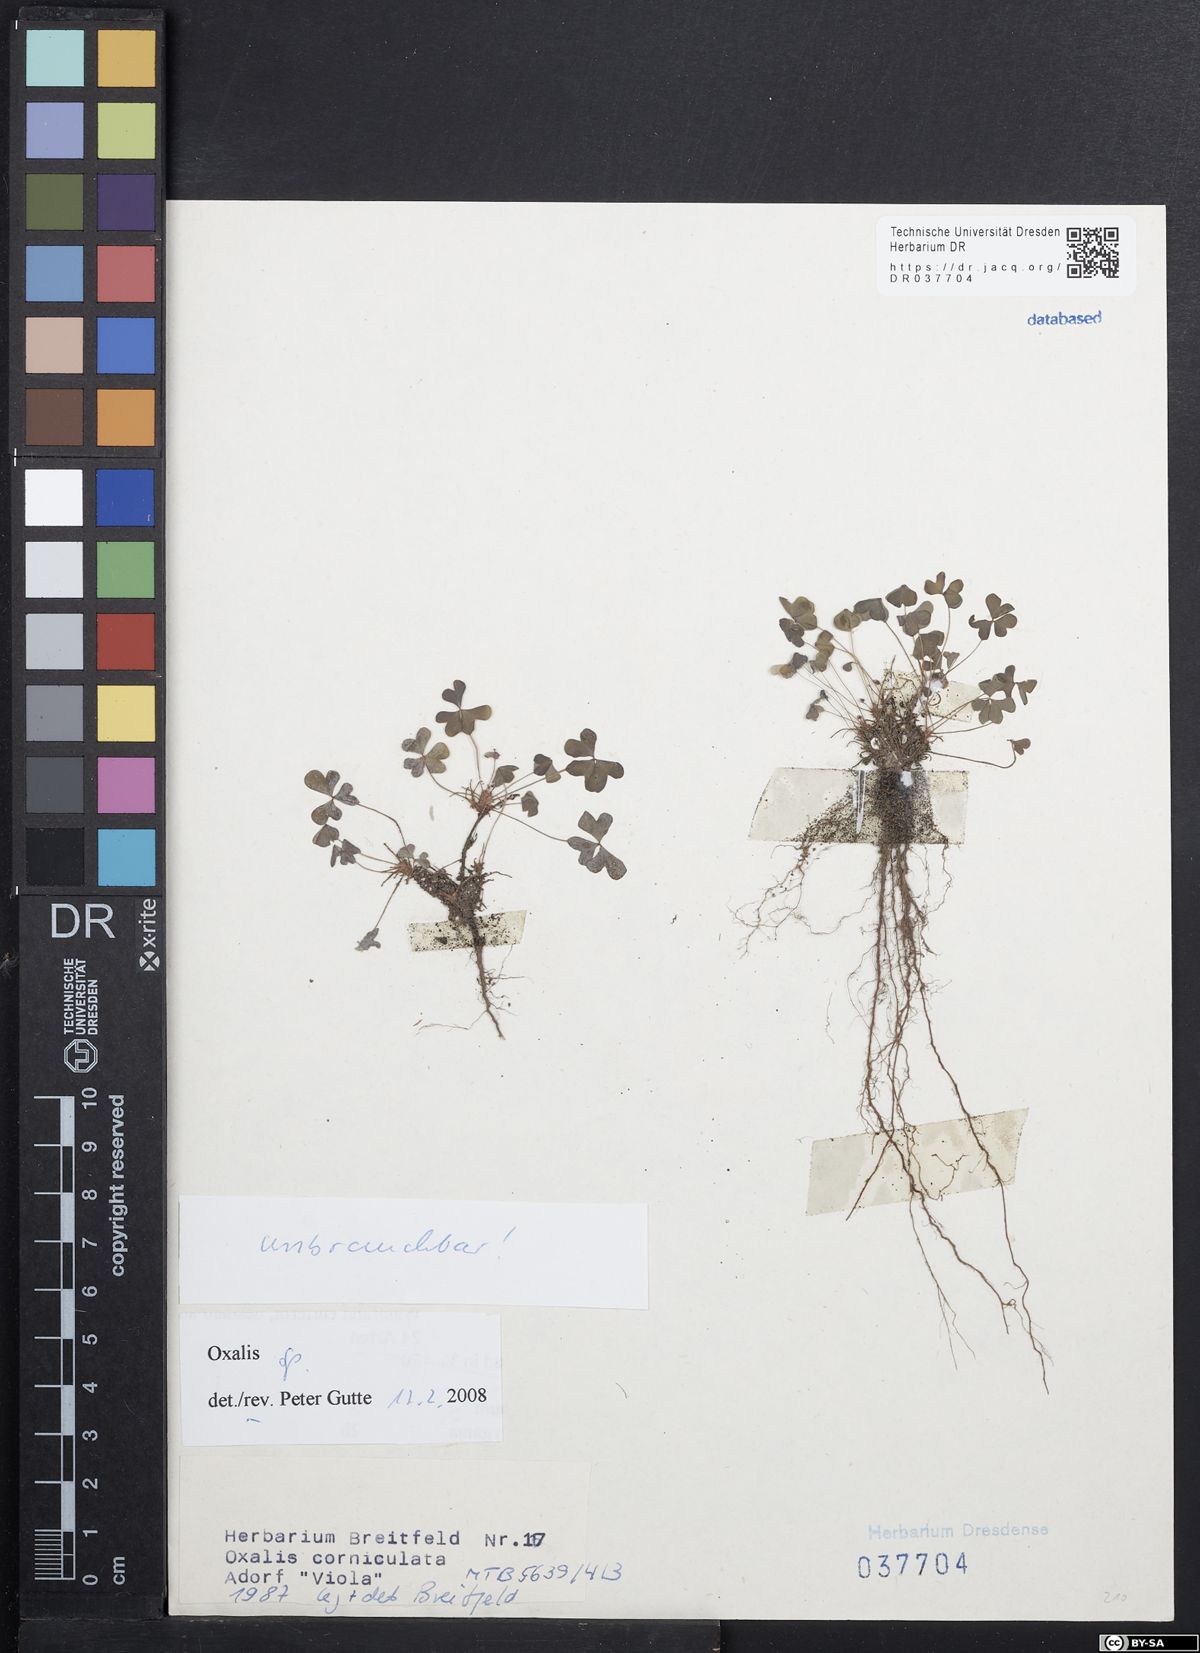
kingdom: Plantae
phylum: Tracheophyta
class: Magnoliopsida
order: Oxalidales
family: Oxalidaceae
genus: Oxalis
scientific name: Oxalis
